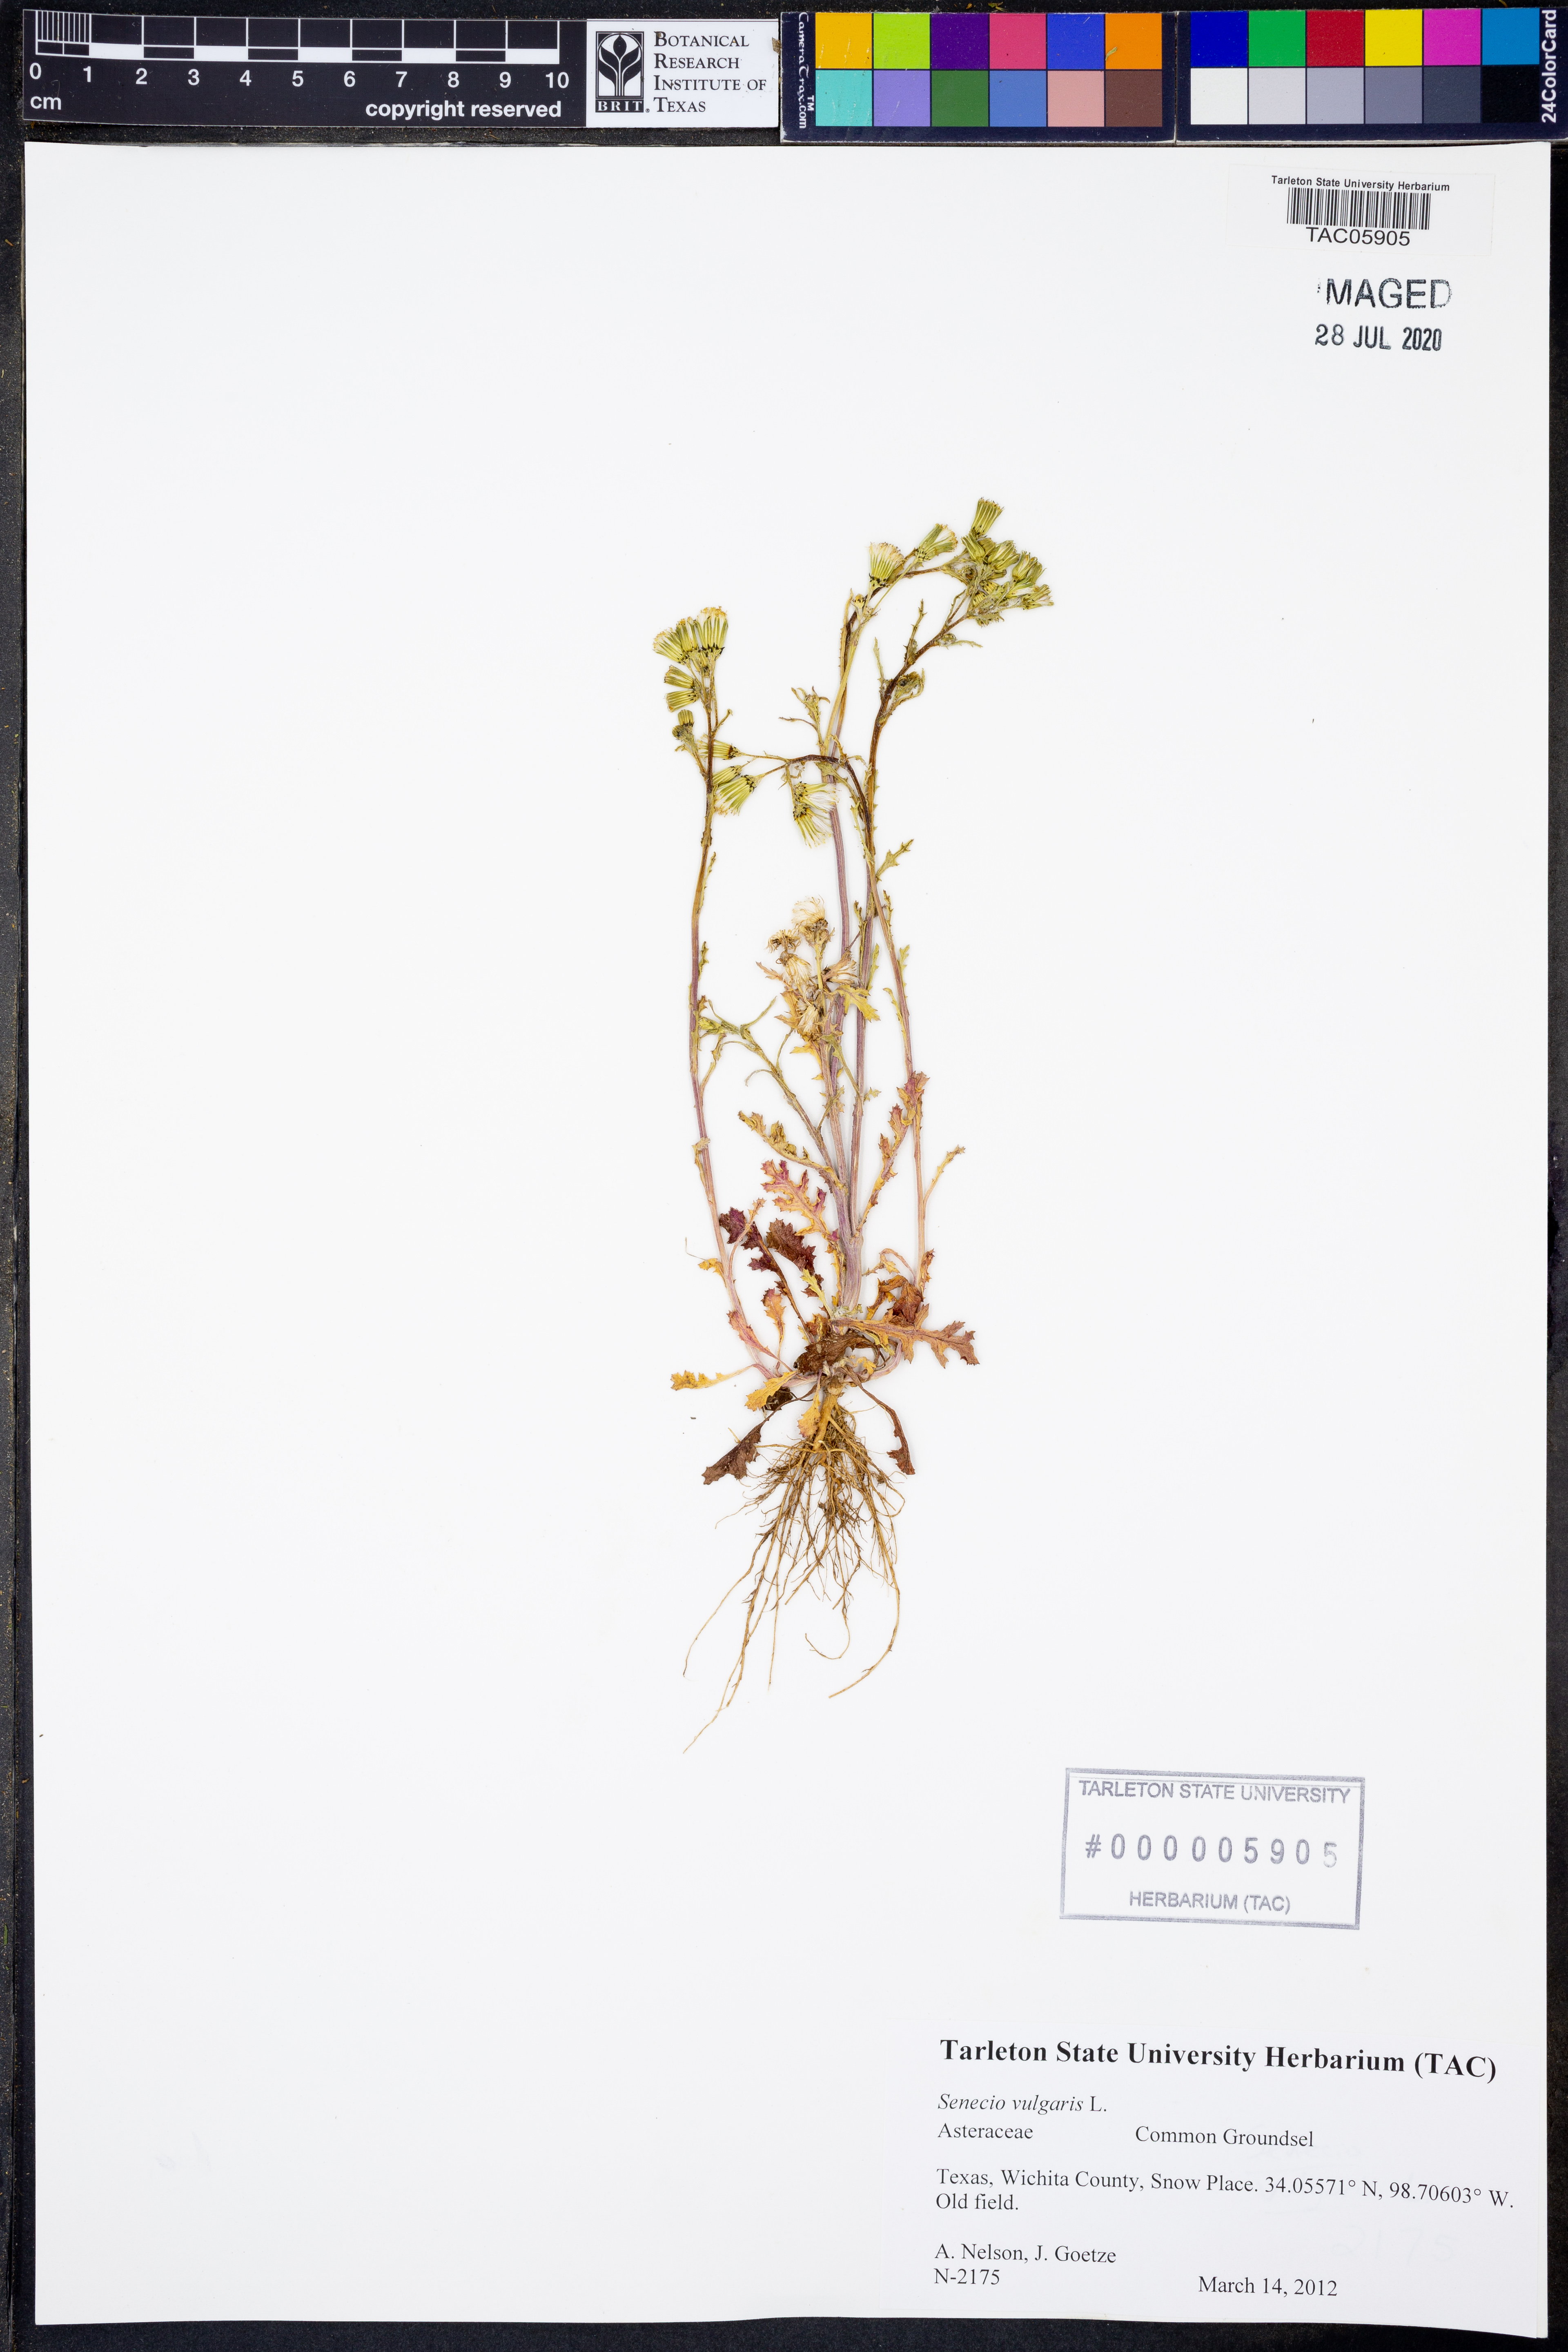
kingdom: Plantae
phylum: Tracheophyta
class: Magnoliopsida
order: Asterales
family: Asteraceae
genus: Senecio
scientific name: Senecio vulgaris
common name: Old-man-in-the-spring
